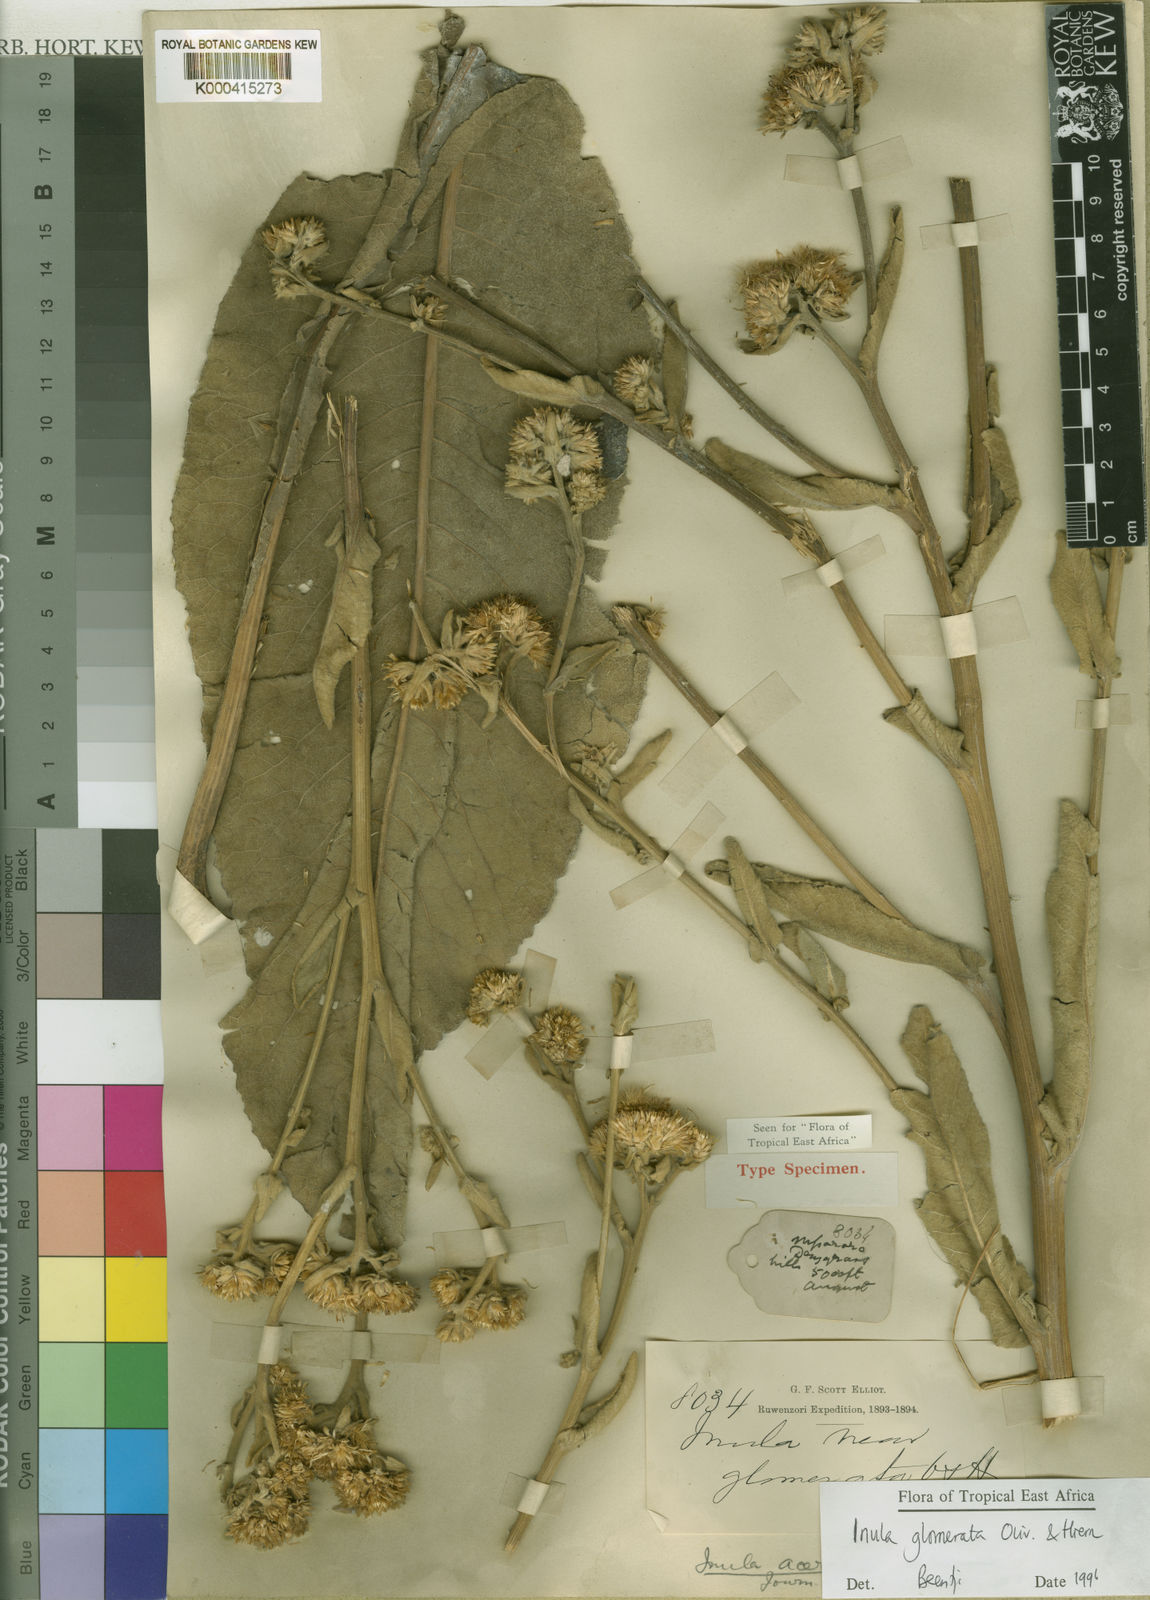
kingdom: Plantae
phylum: Tracheophyta
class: Magnoliopsida
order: Asterales
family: Asteraceae
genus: Inula
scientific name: Inula glomerata
